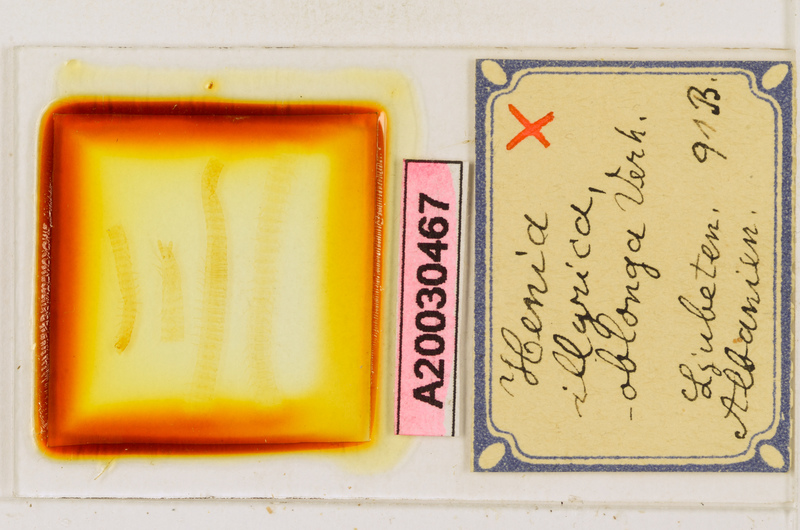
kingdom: Animalia
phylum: Arthropoda
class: Chilopoda
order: Geophilomorpha
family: Dignathodontidae
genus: Henia
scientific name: Henia illyrica
